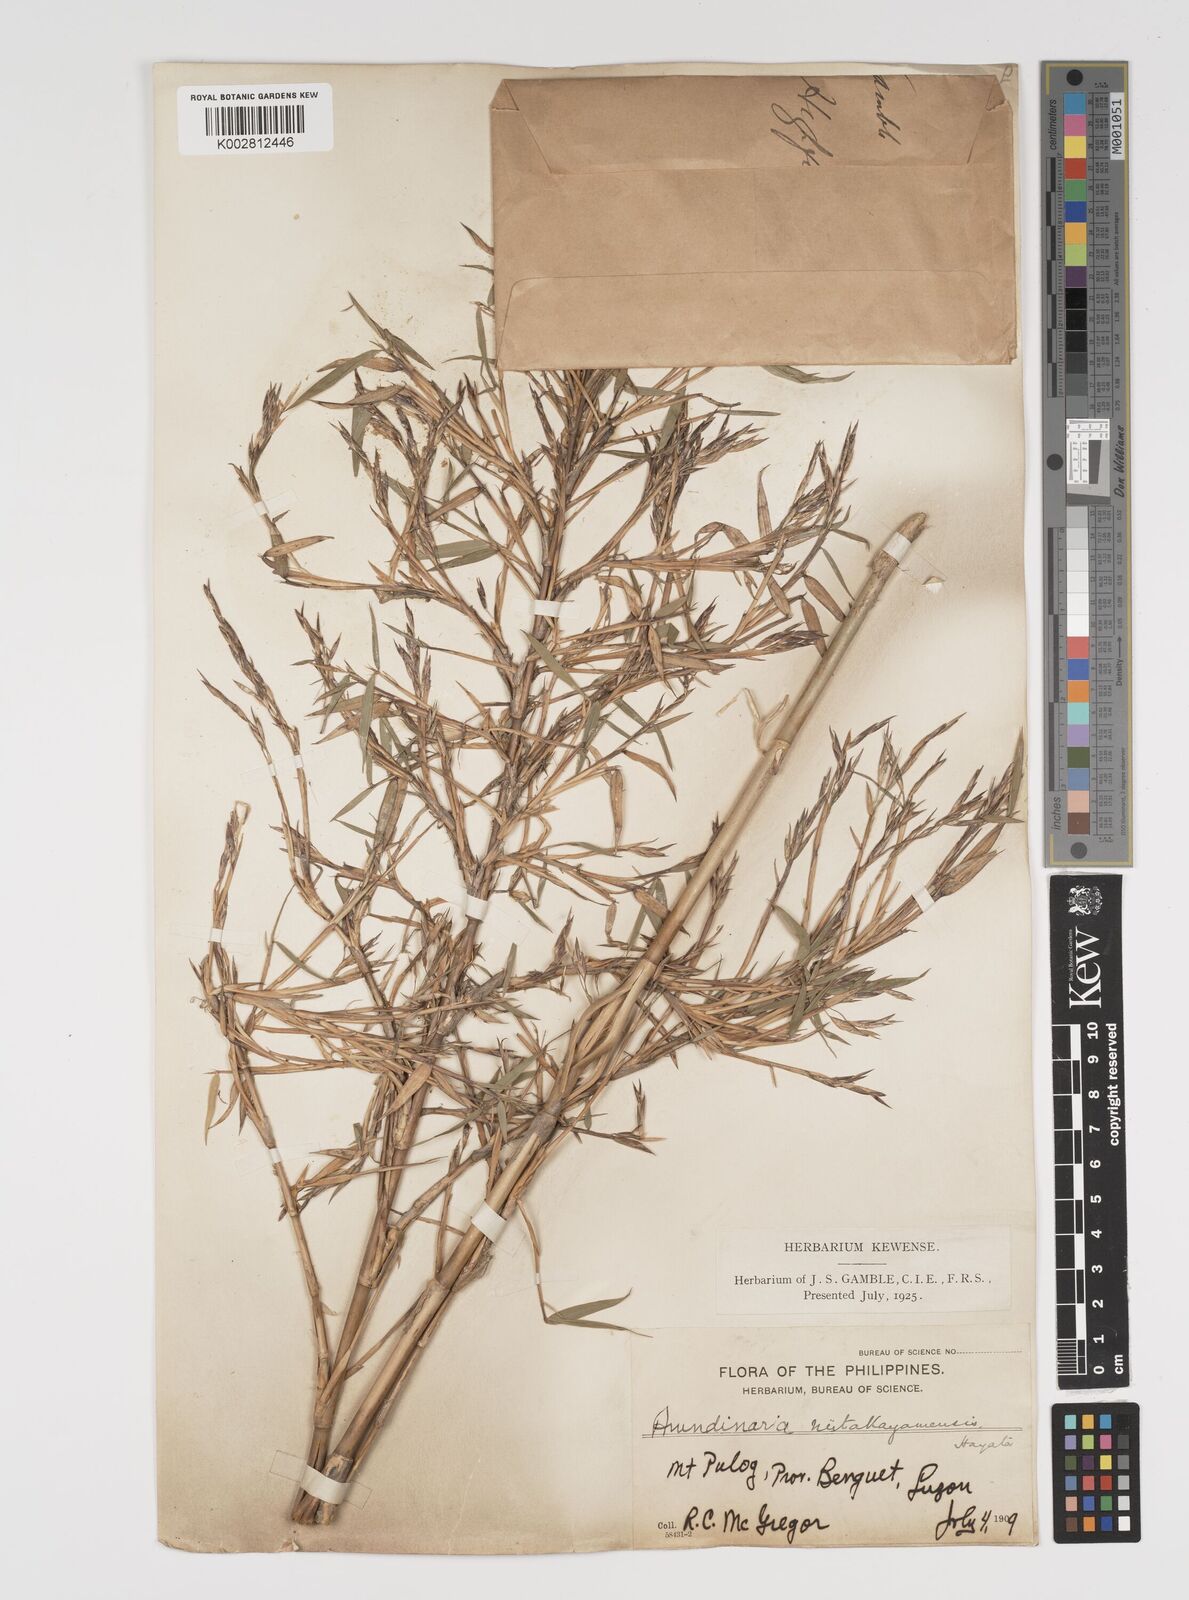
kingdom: Plantae
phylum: Tracheophyta
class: Liliopsida
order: Poales
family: Poaceae
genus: Yushania
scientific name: Yushania niitakayamensis
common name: Yushan cane
